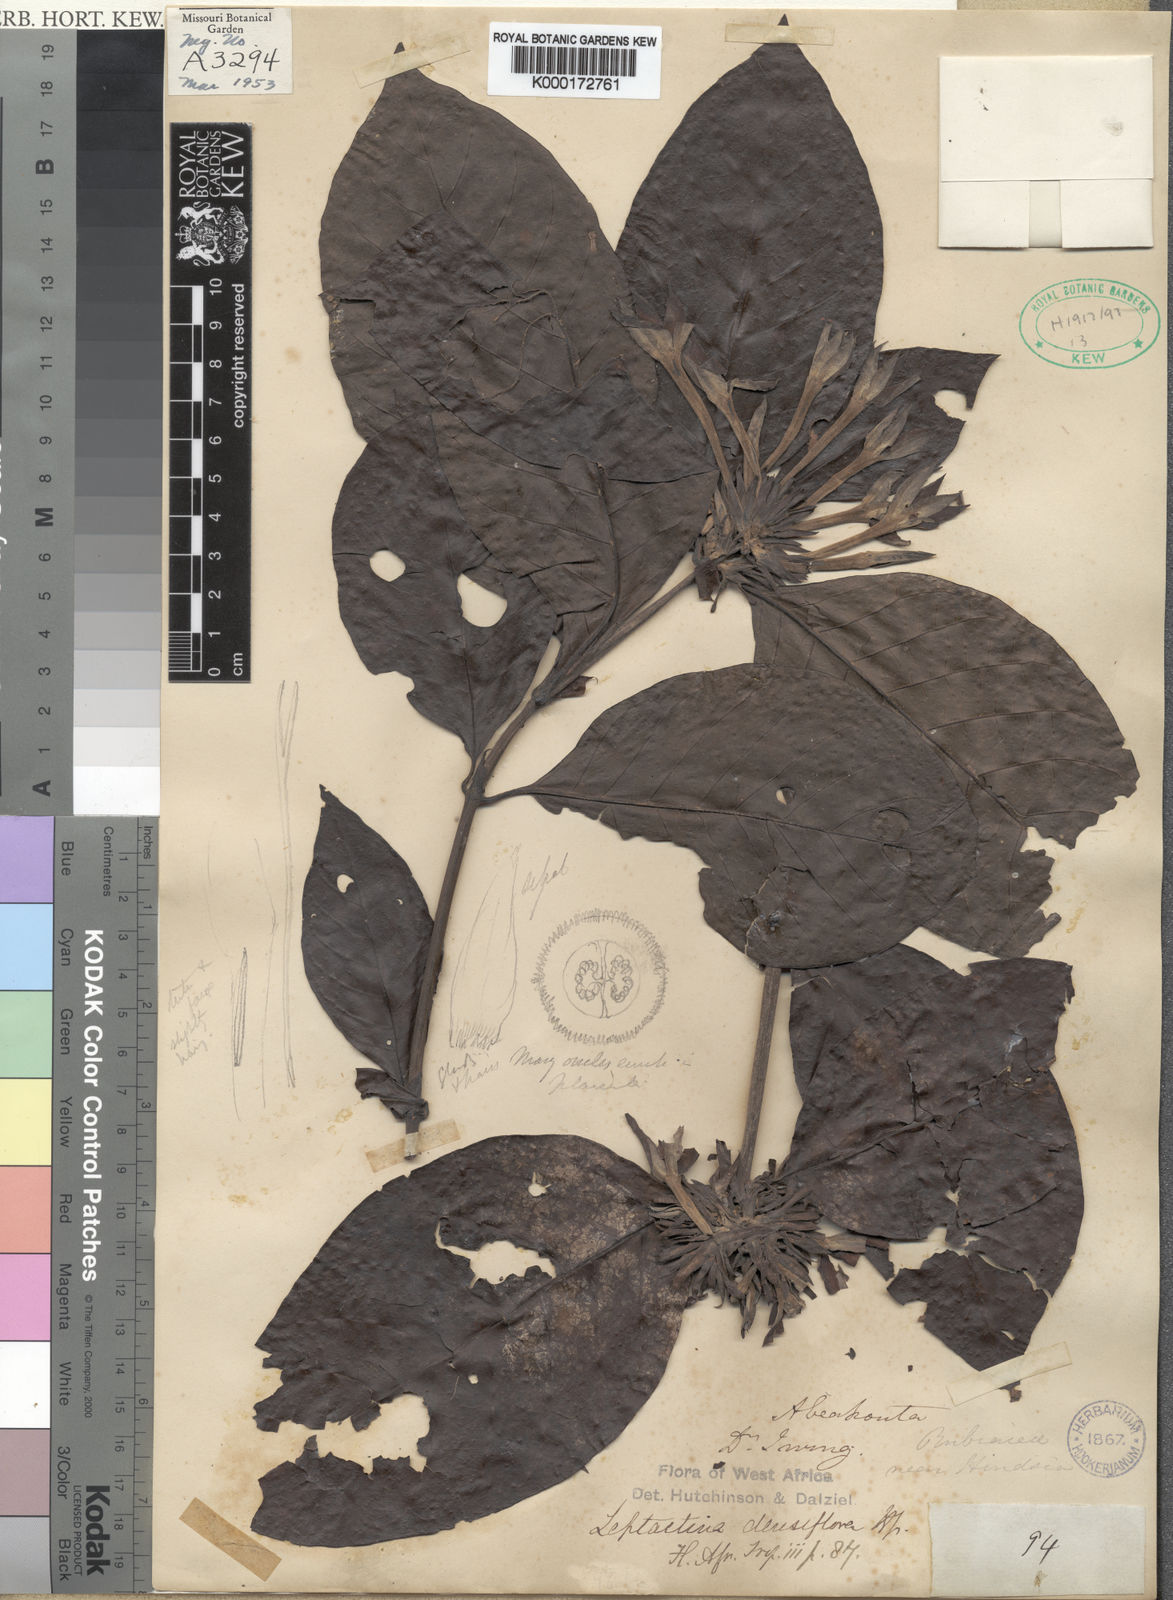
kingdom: Plantae
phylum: Tracheophyta
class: Magnoliopsida
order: Gentianales
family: Rubiaceae
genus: Leptactina
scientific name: Leptactina densiflora
